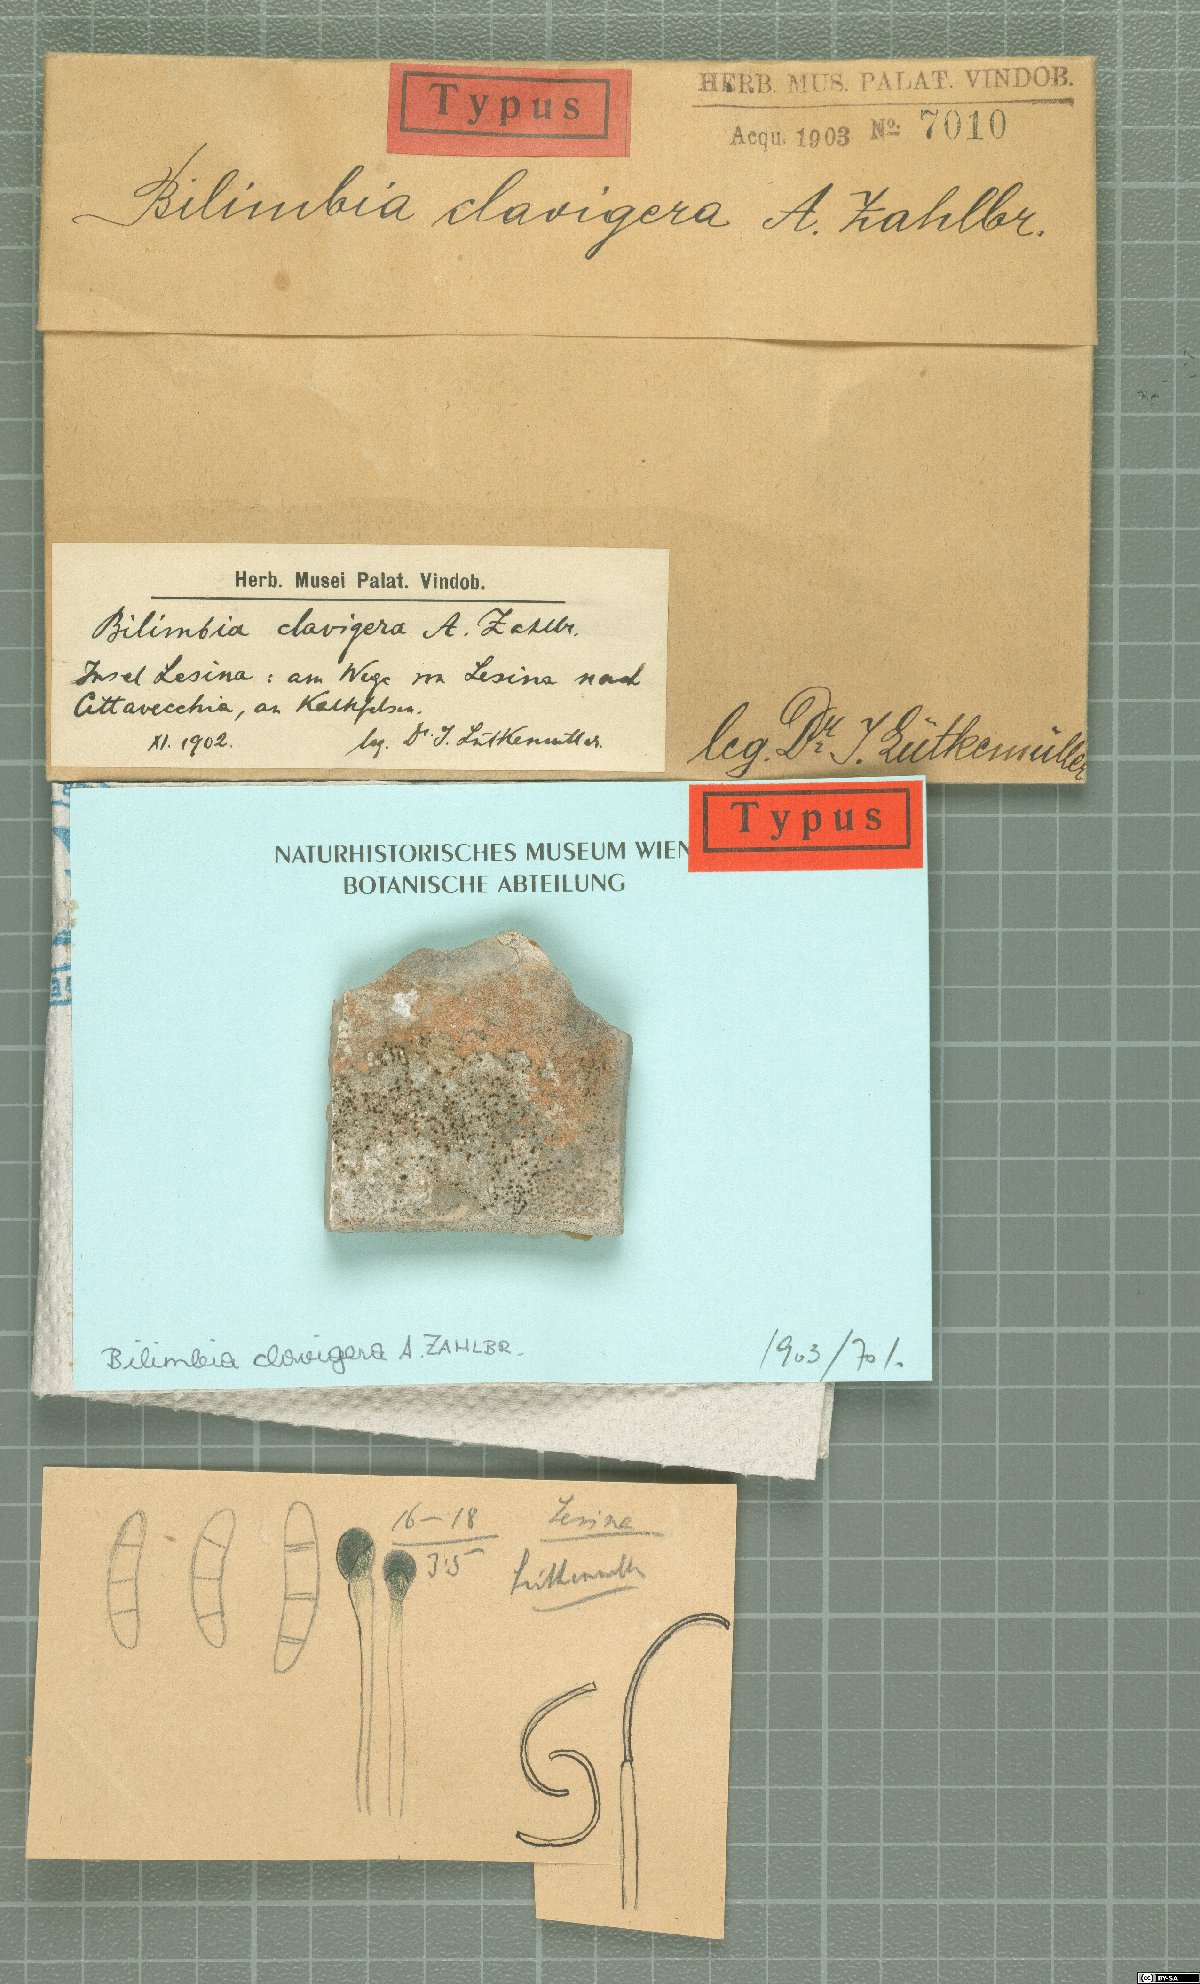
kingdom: Fungi
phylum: Ascomycota
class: Lecanoromycetes
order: Lecanorales
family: Ramalinaceae
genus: Bilimbia
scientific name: Bilimbia
